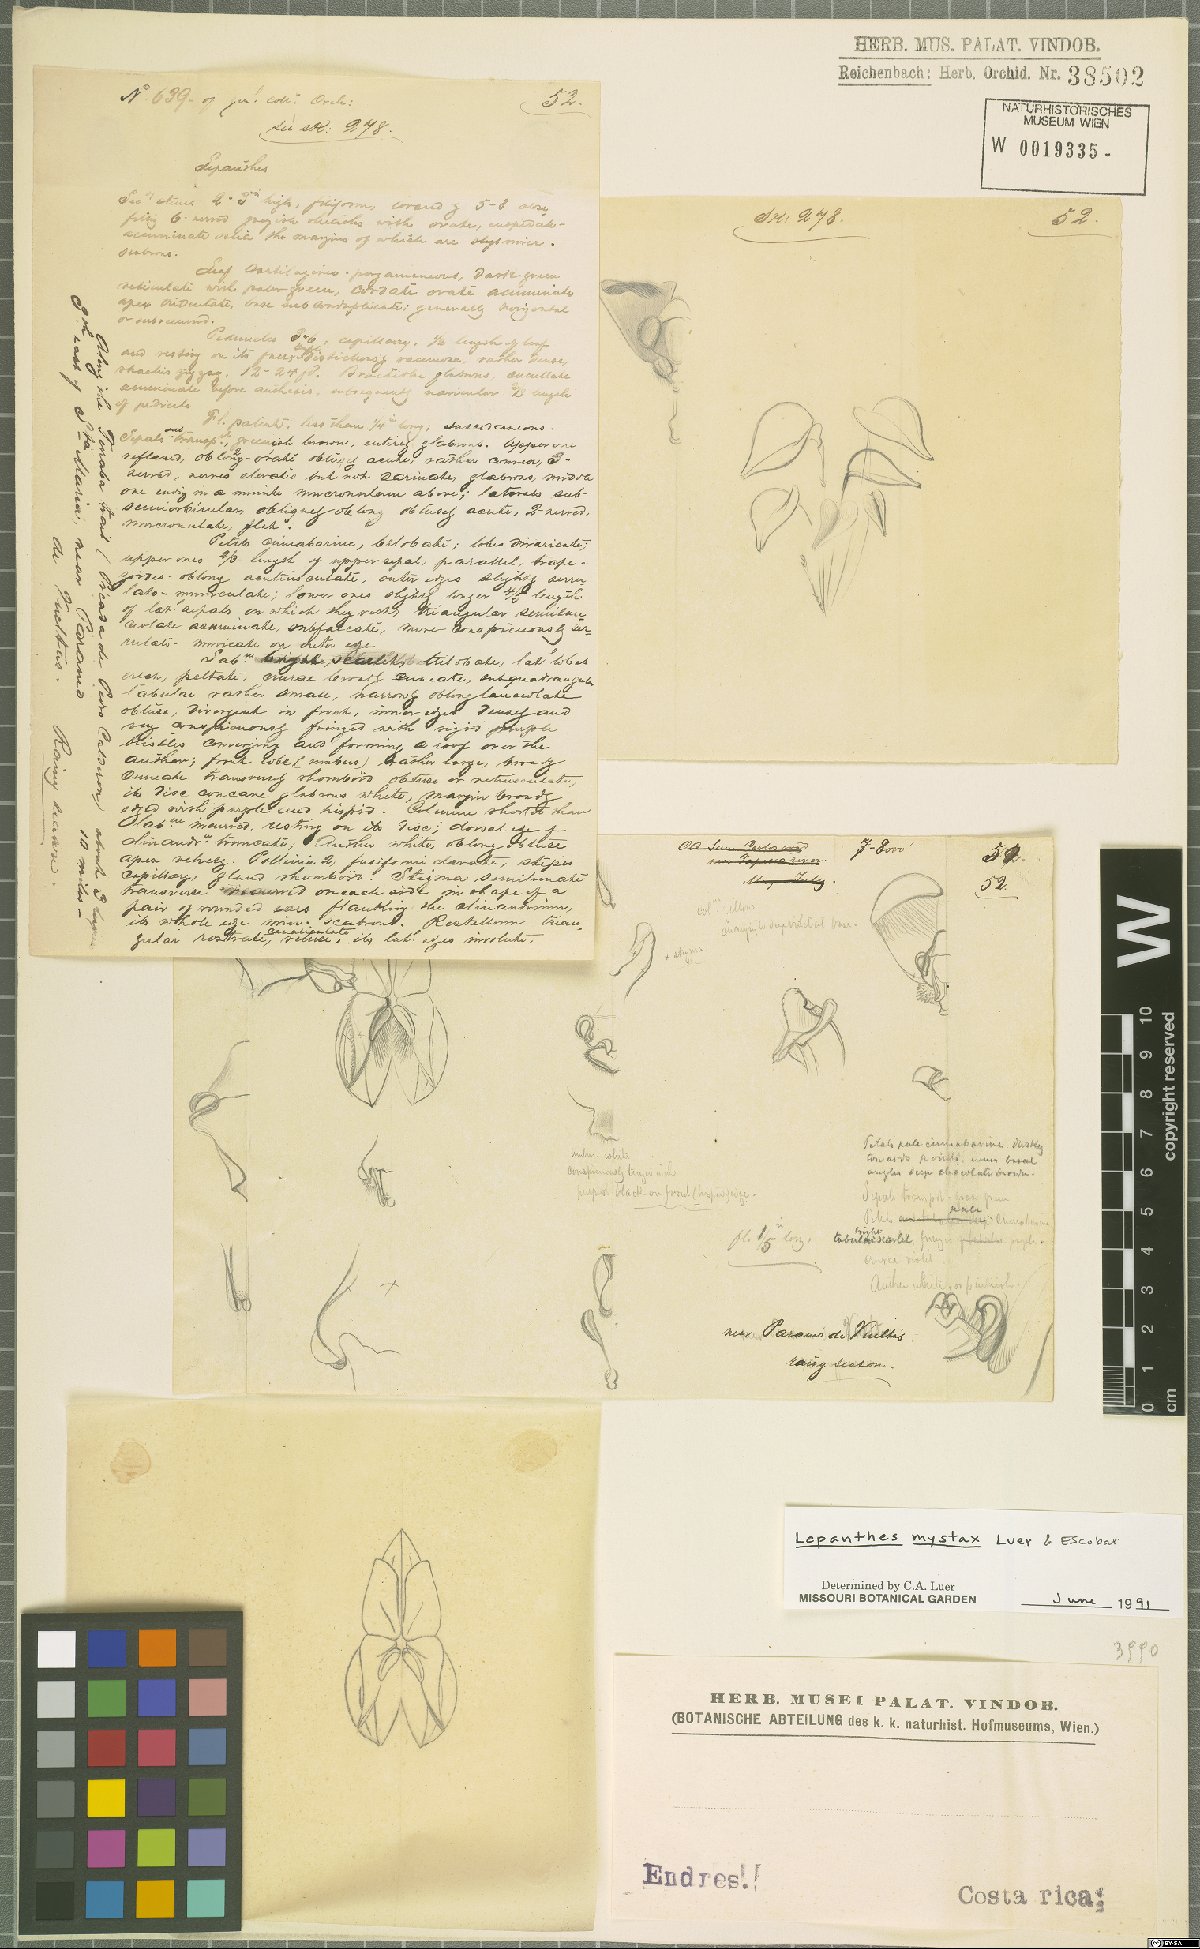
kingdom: Plantae
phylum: Tracheophyta
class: Liliopsida
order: Asparagales
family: Orchidaceae
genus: Lepanthes
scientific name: Lepanthes mystax
